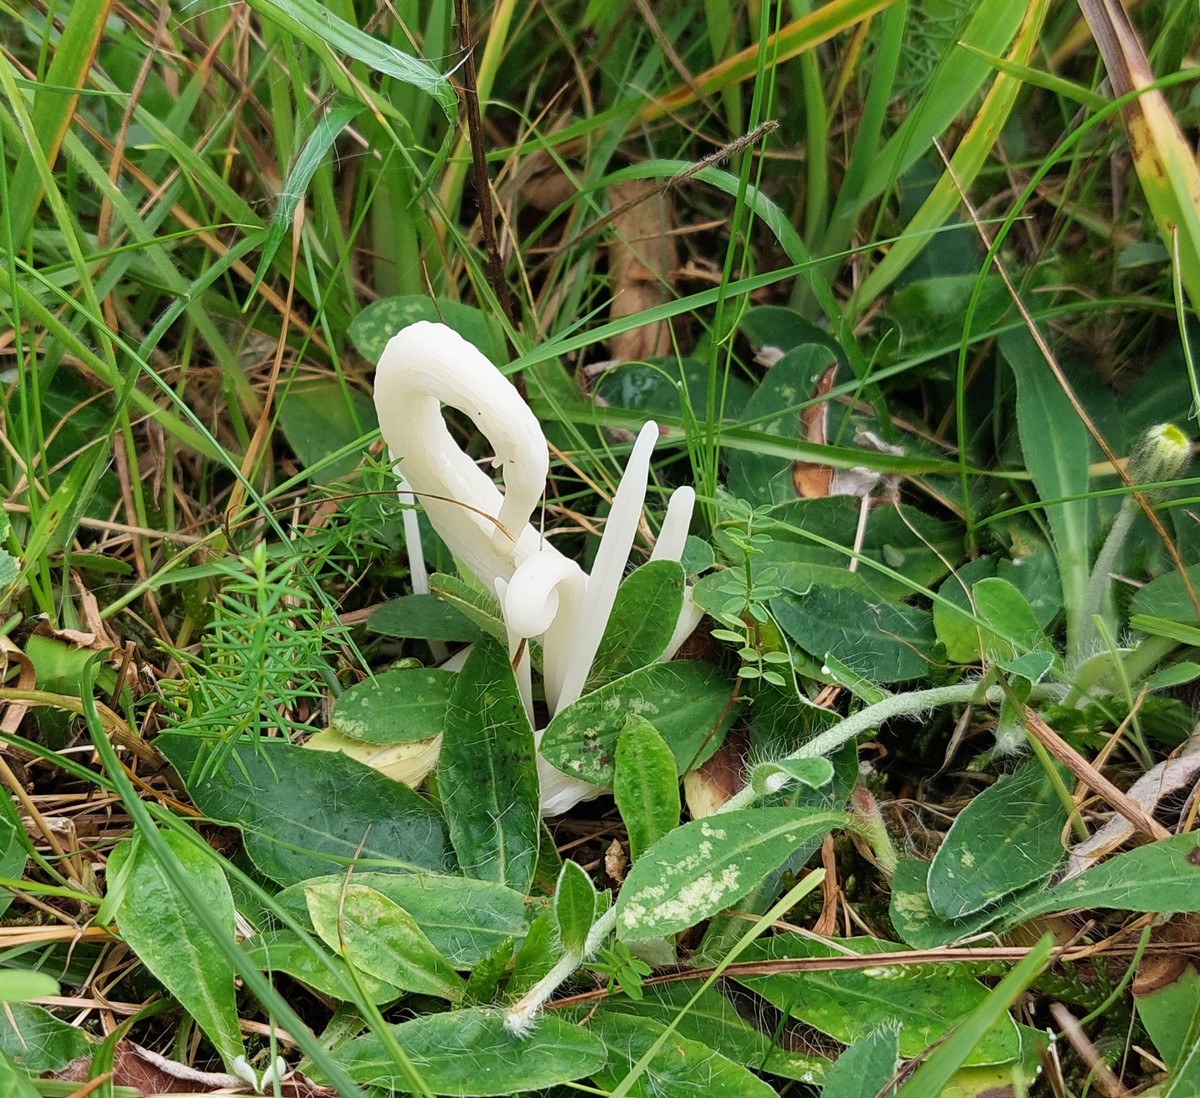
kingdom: Fungi
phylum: Basidiomycota
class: Agaricomycetes
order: Agaricales
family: Clavariaceae
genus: Clavaria
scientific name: Clavaria falcata
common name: hvid køllesvamp
